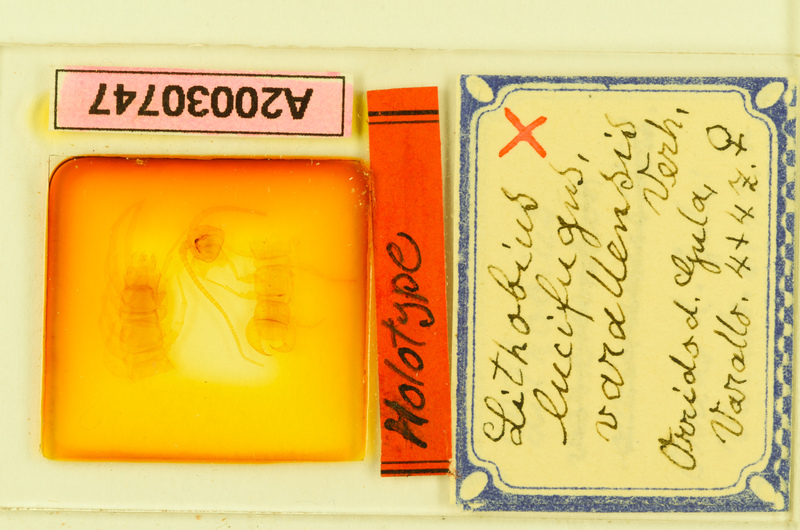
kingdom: Animalia
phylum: Arthropoda
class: Chilopoda
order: Lithobiomorpha
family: Lithobiidae
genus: Lithobius
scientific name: Lithobius lucifugus
